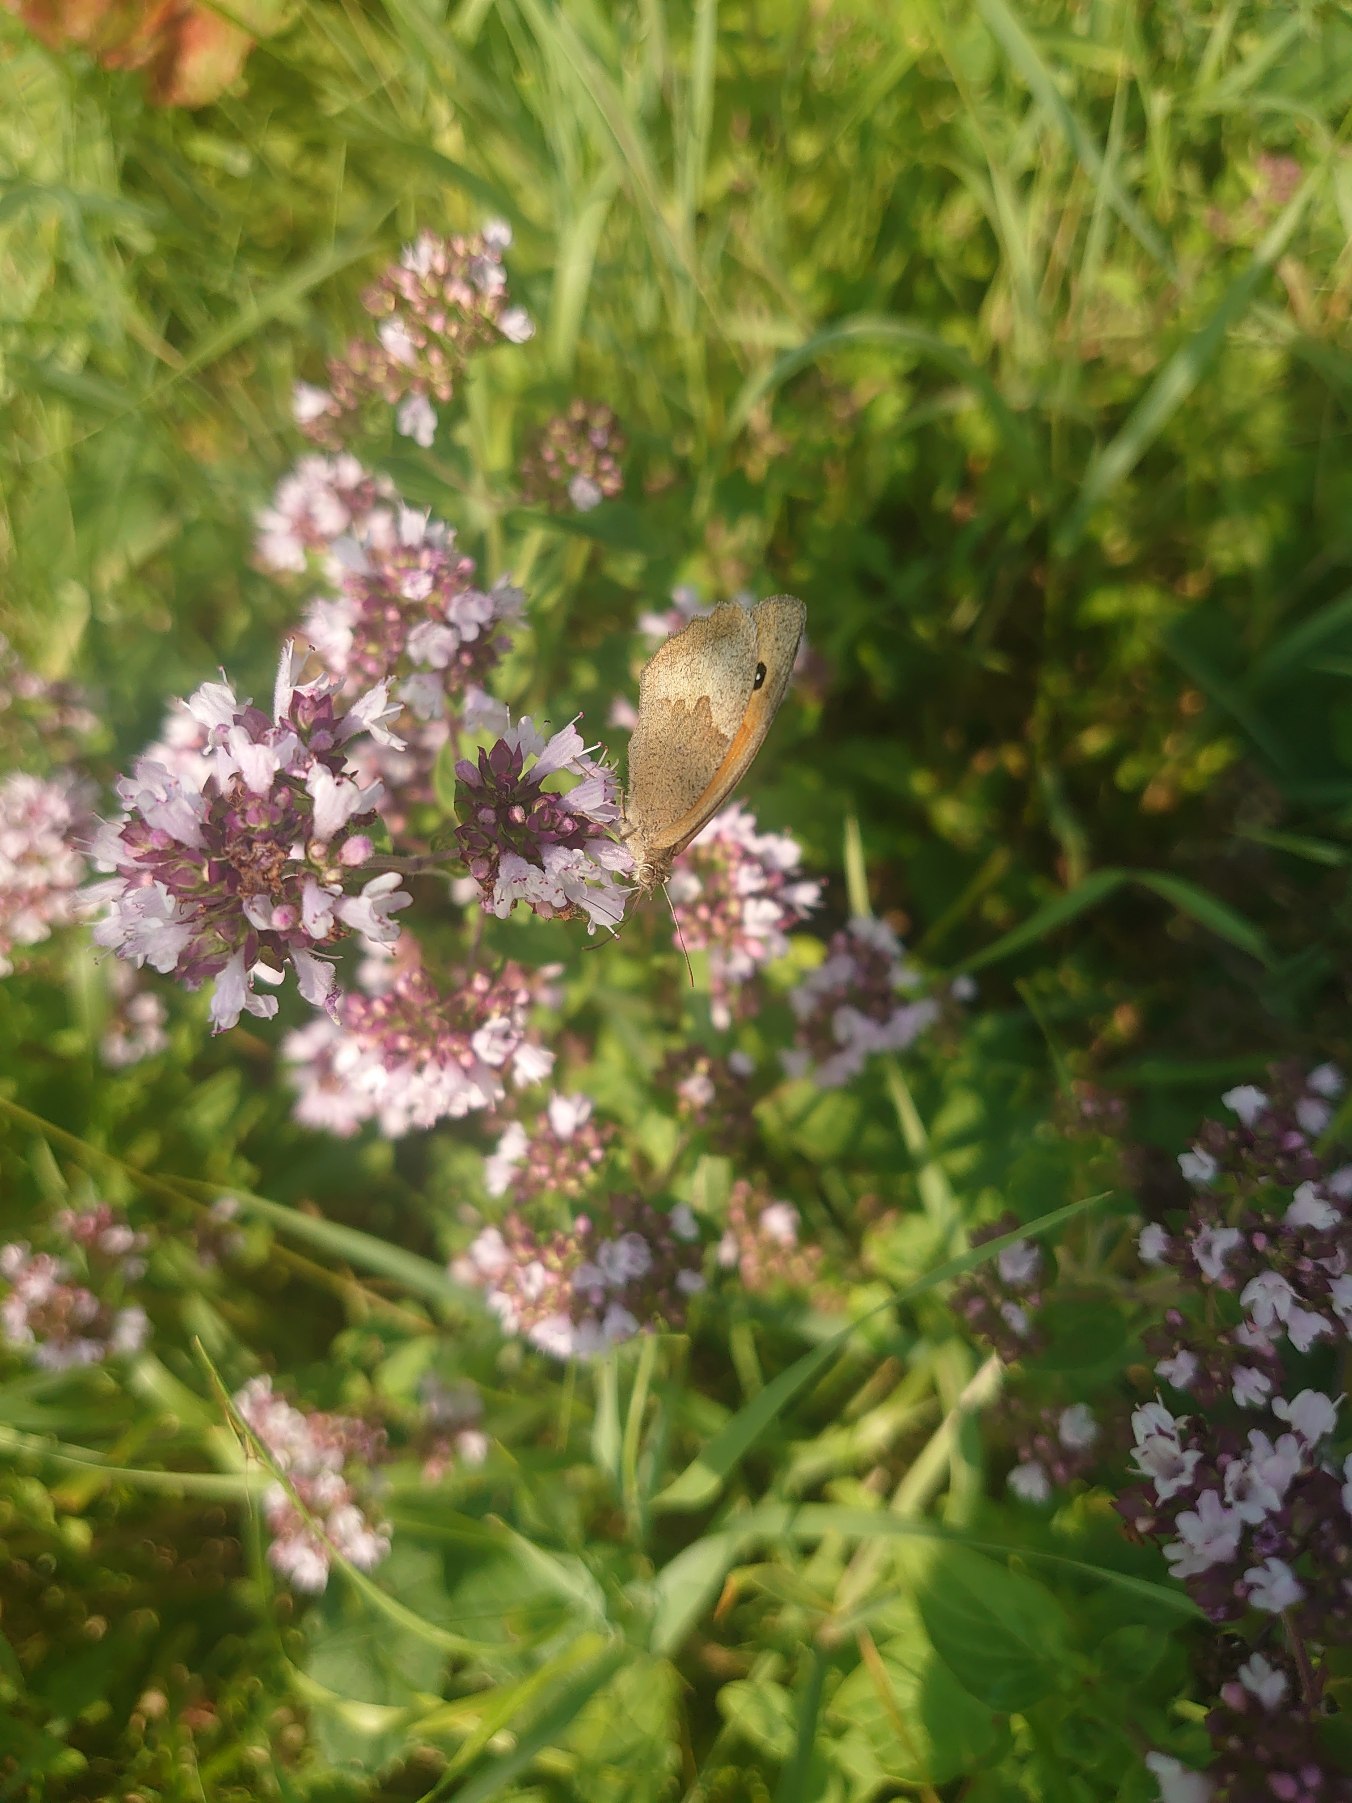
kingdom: Animalia
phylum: Arthropoda
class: Insecta
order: Lepidoptera
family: Nymphalidae
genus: Maniola
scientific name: Maniola jurtina
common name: Græsrandøje
